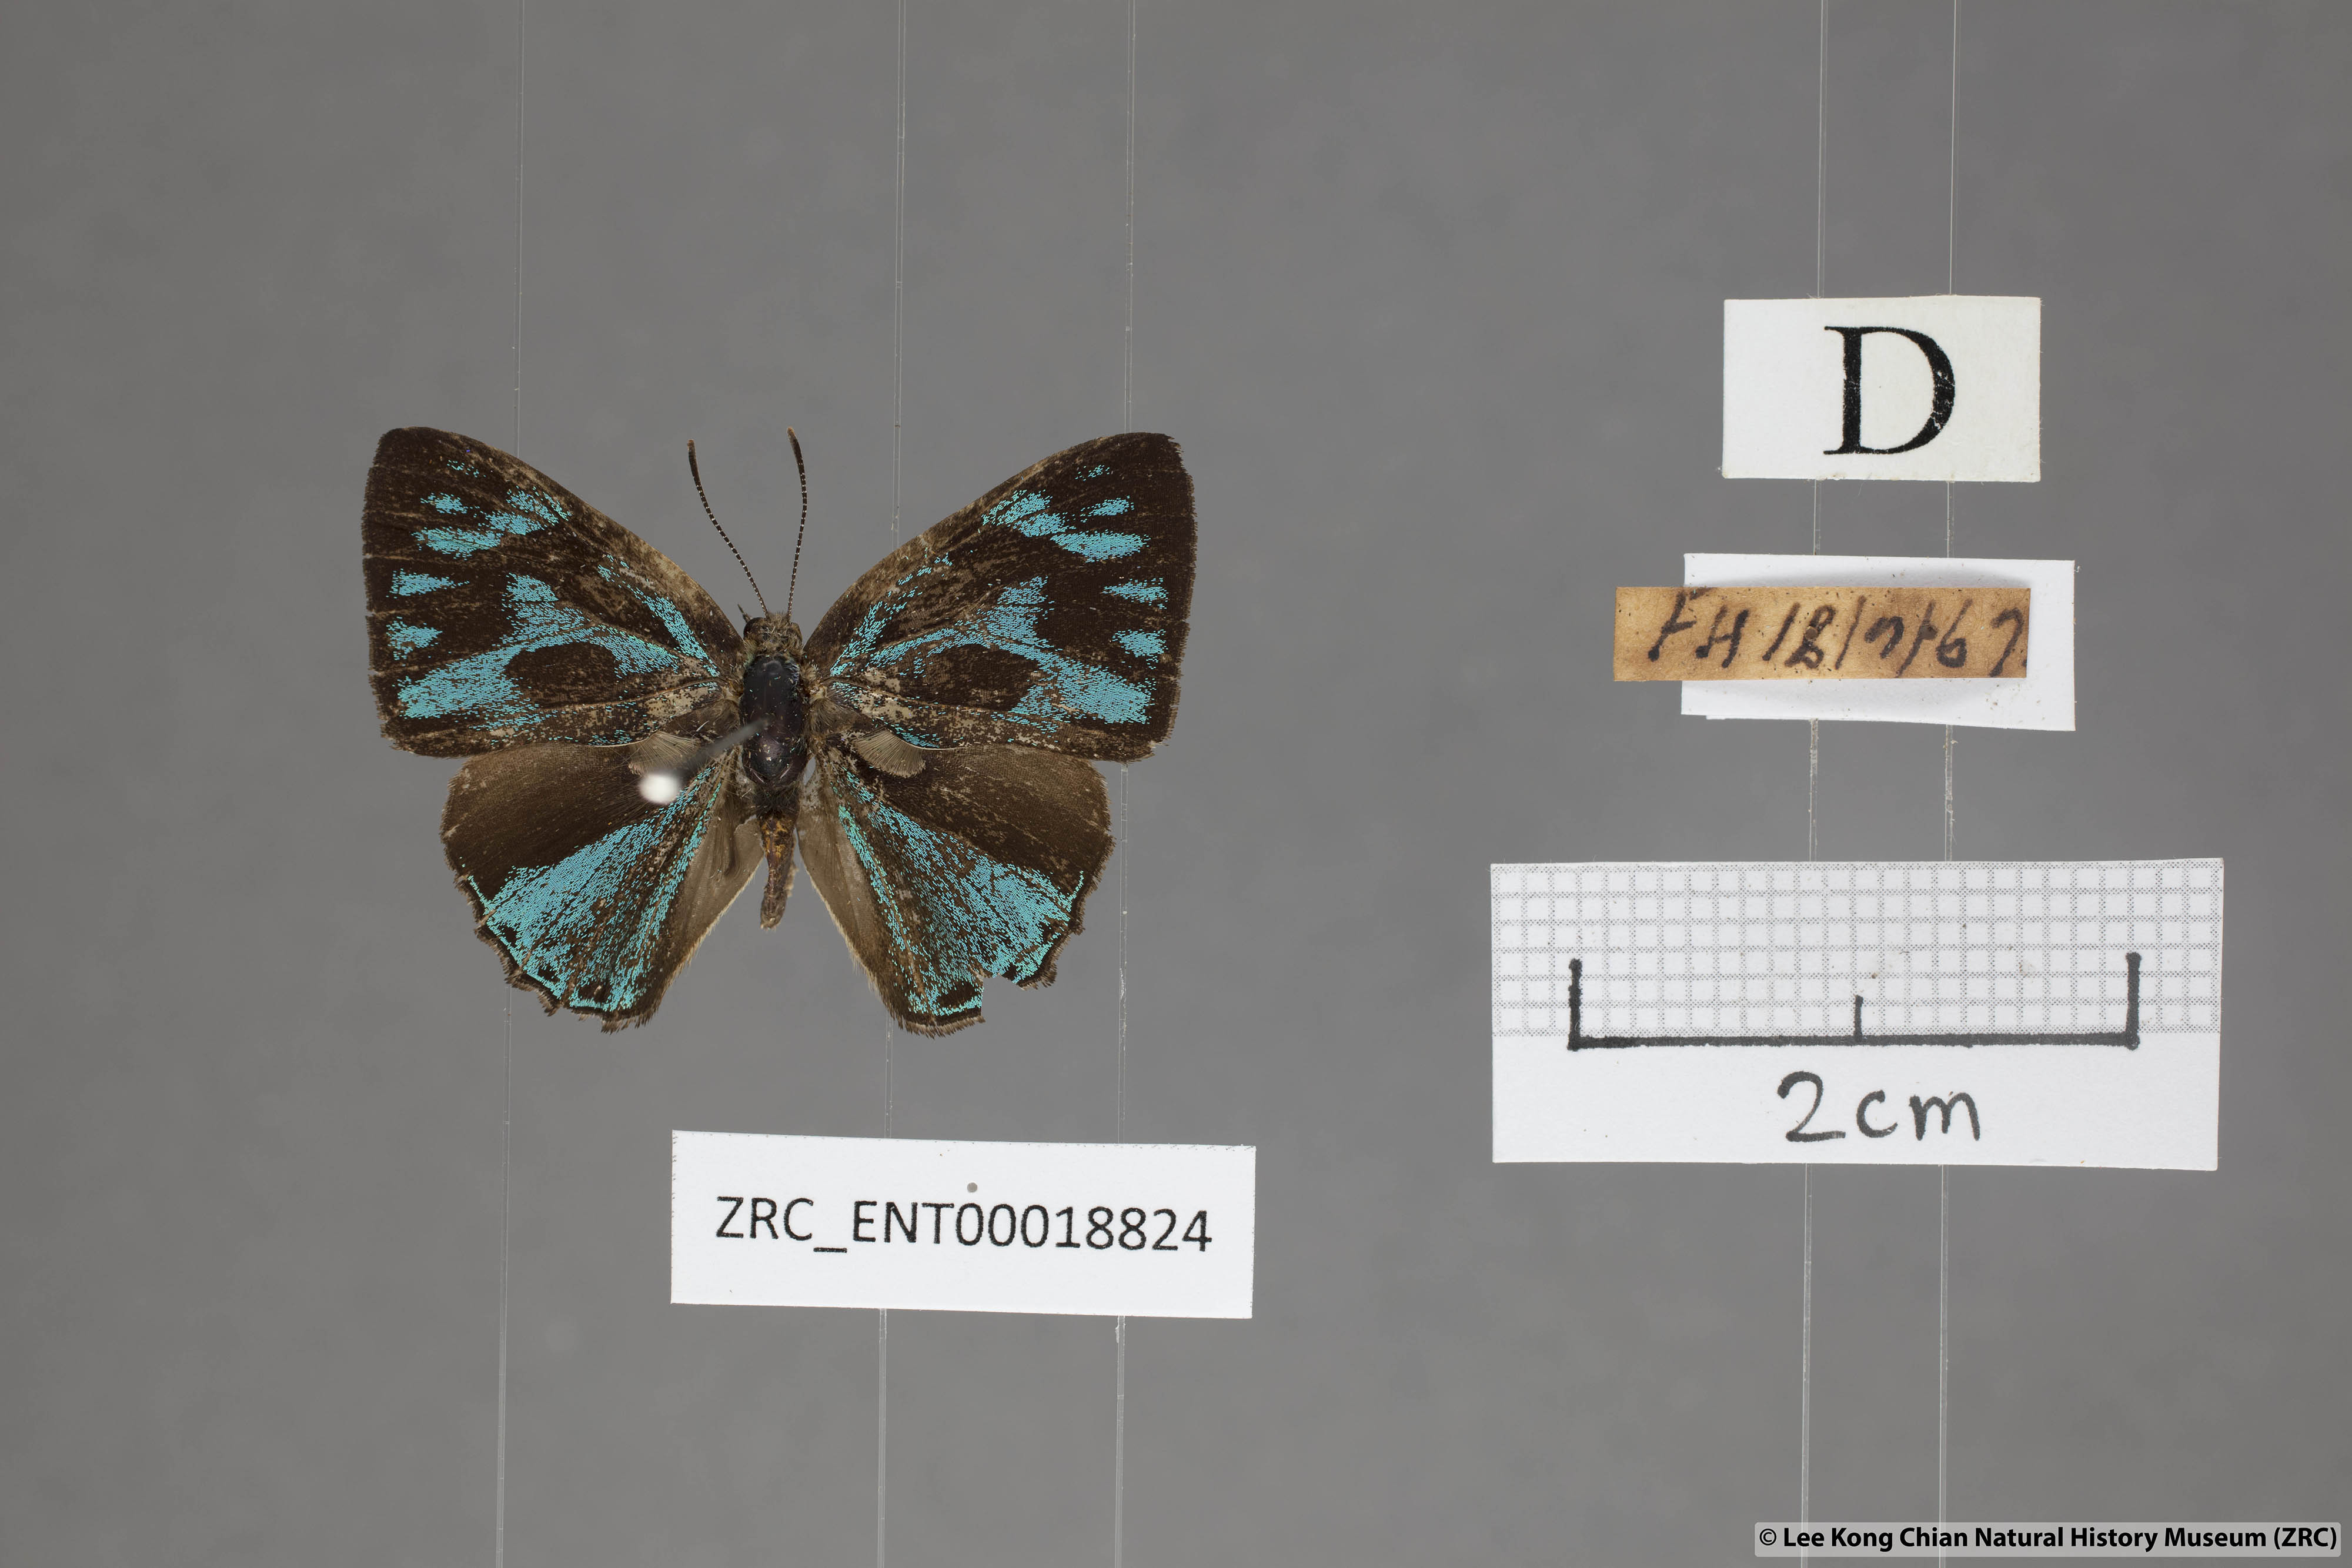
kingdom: Animalia
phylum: Arthropoda
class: Insecta
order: Lepidoptera
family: Lycaenidae
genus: Poritia
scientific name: Poritia philota
